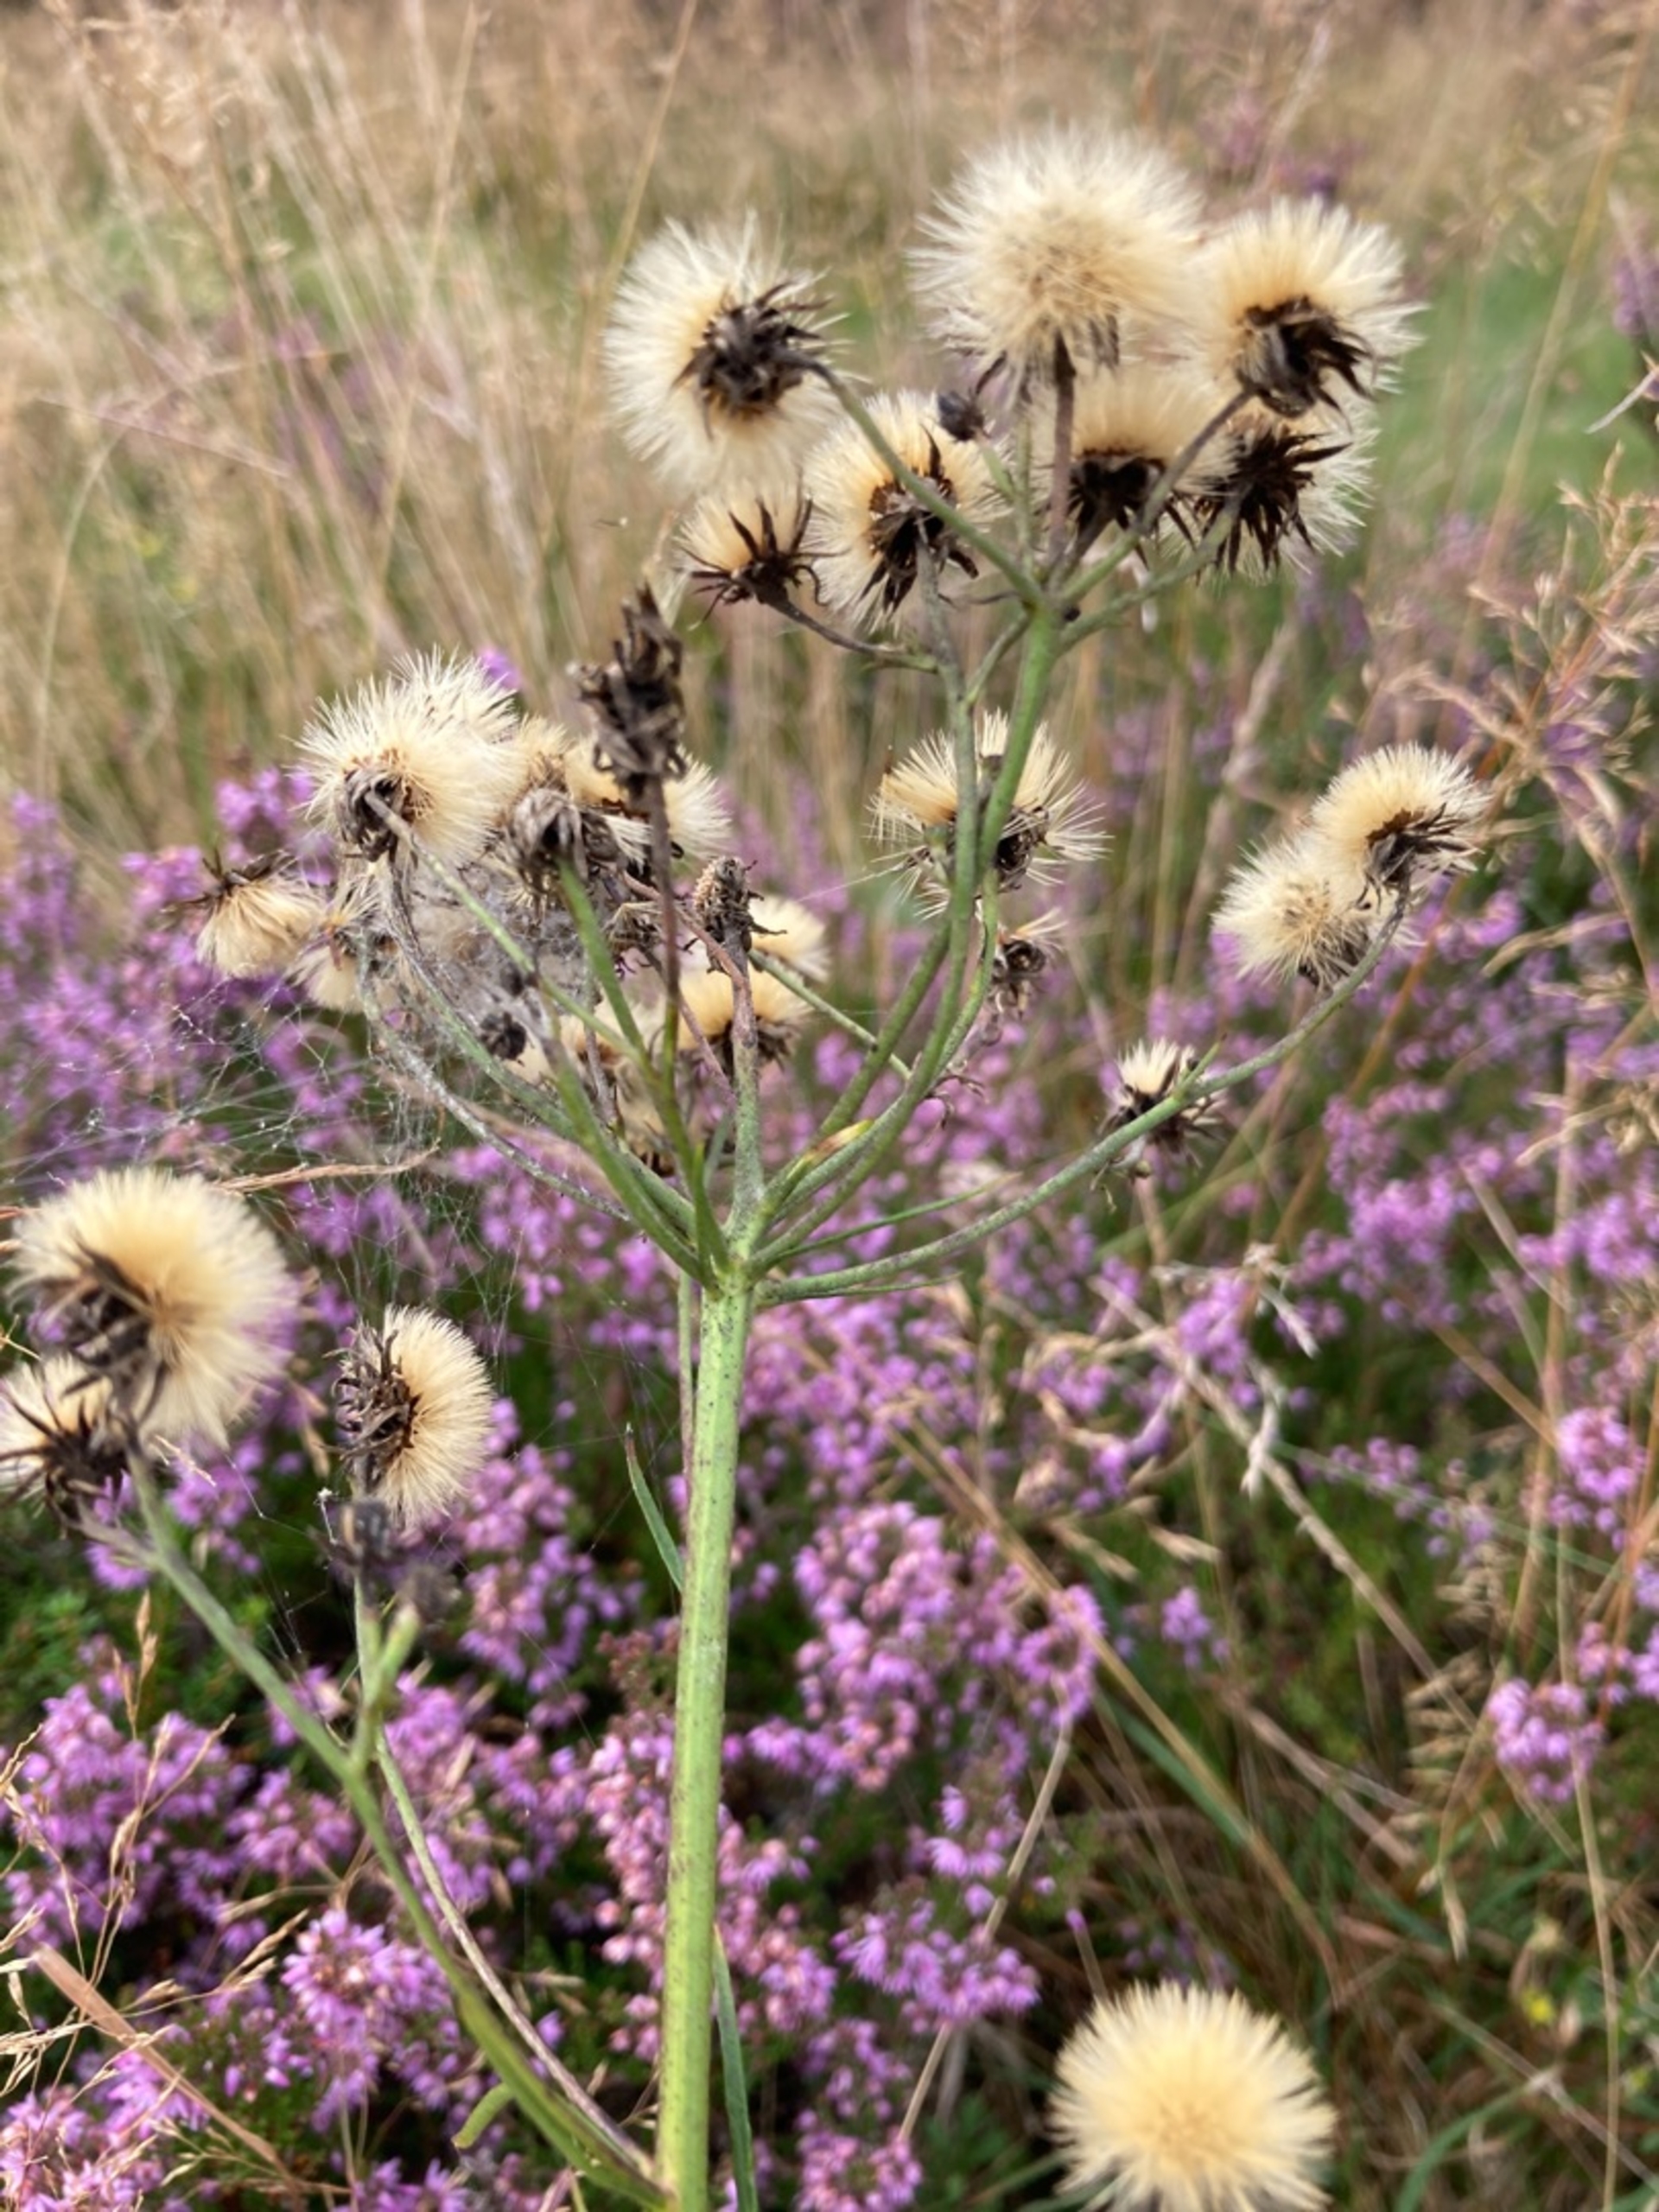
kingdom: Plantae
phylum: Tracheophyta
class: Magnoliopsida
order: Asterales
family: Asteraceae
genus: Hieracium
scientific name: Hieracium umbellatum
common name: Smalbladet høgeurt
